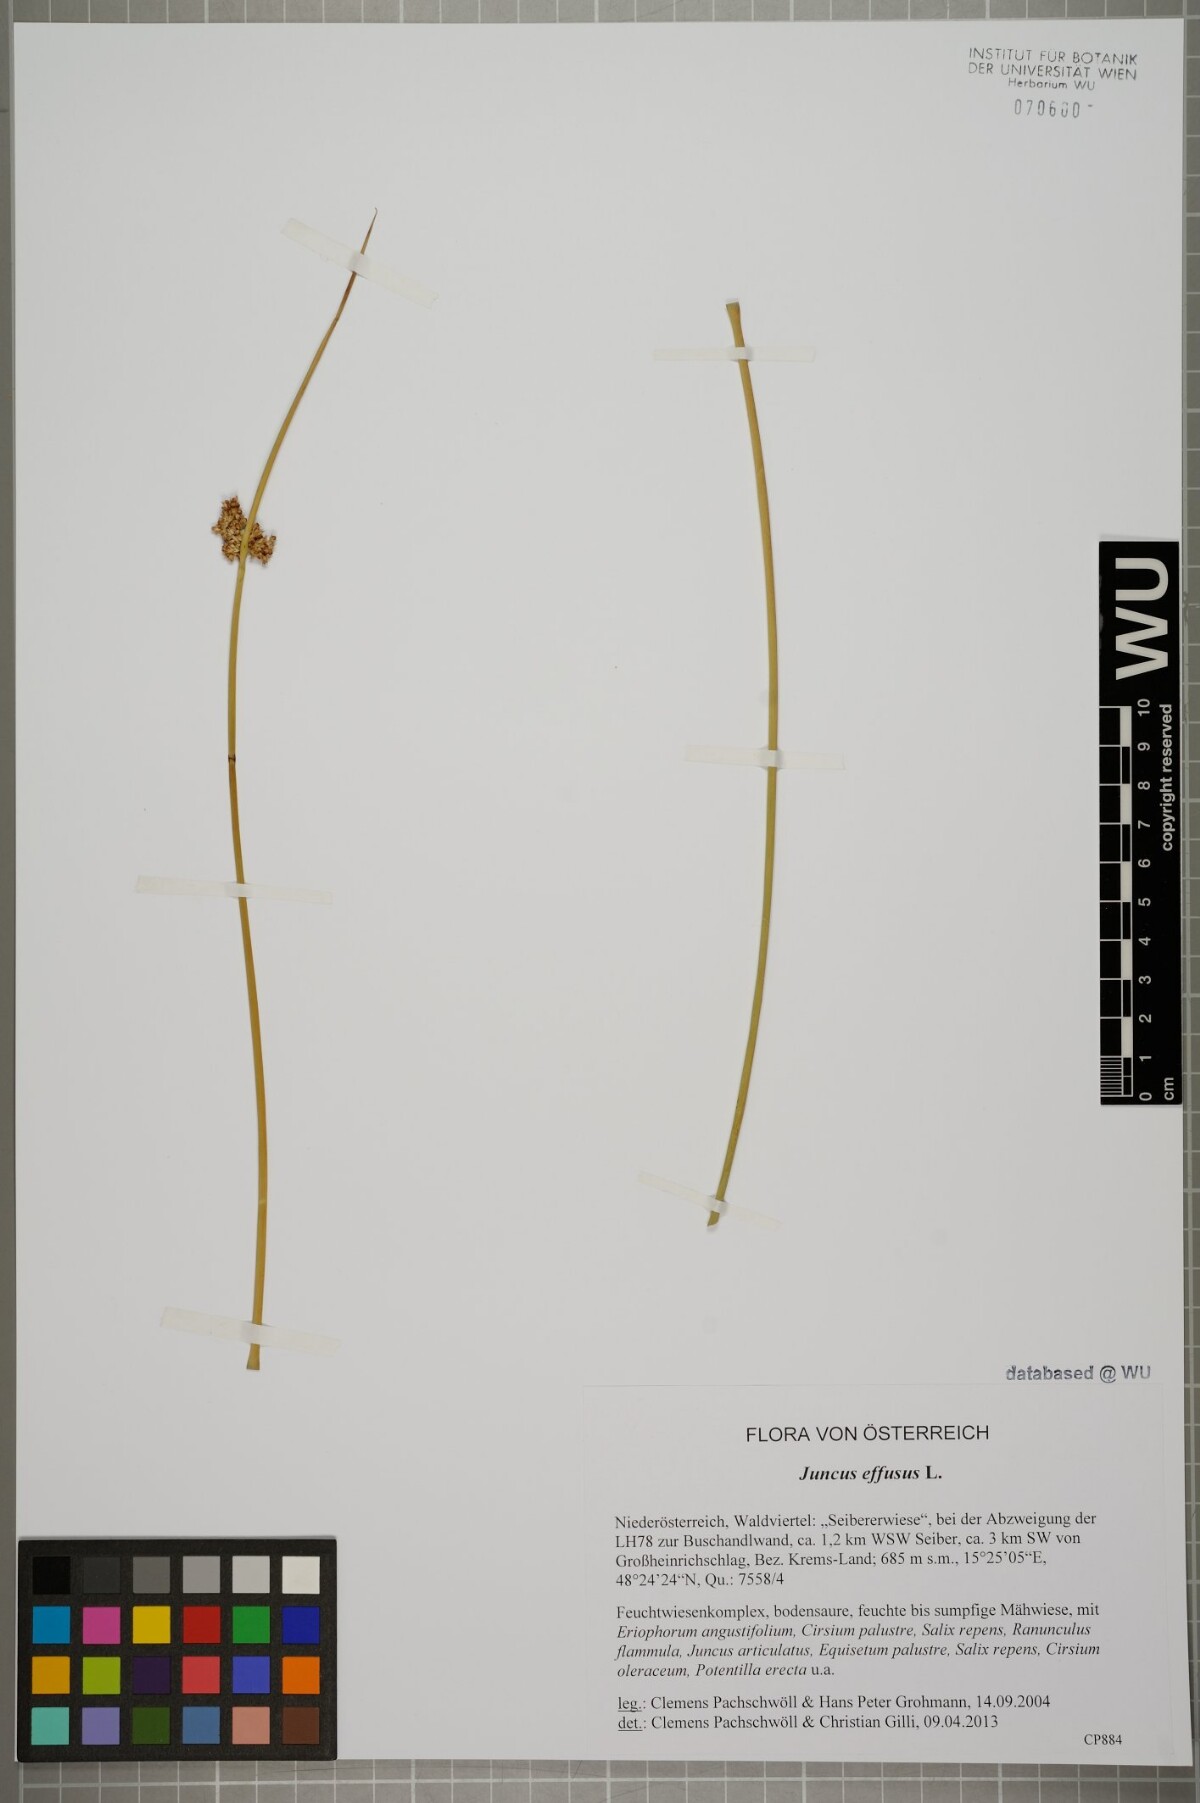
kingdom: Plantae
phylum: Tracheophyta
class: Liliopsida
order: Poales
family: Juncaceae
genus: Juncus
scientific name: Juncus effusus
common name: Soft rush
